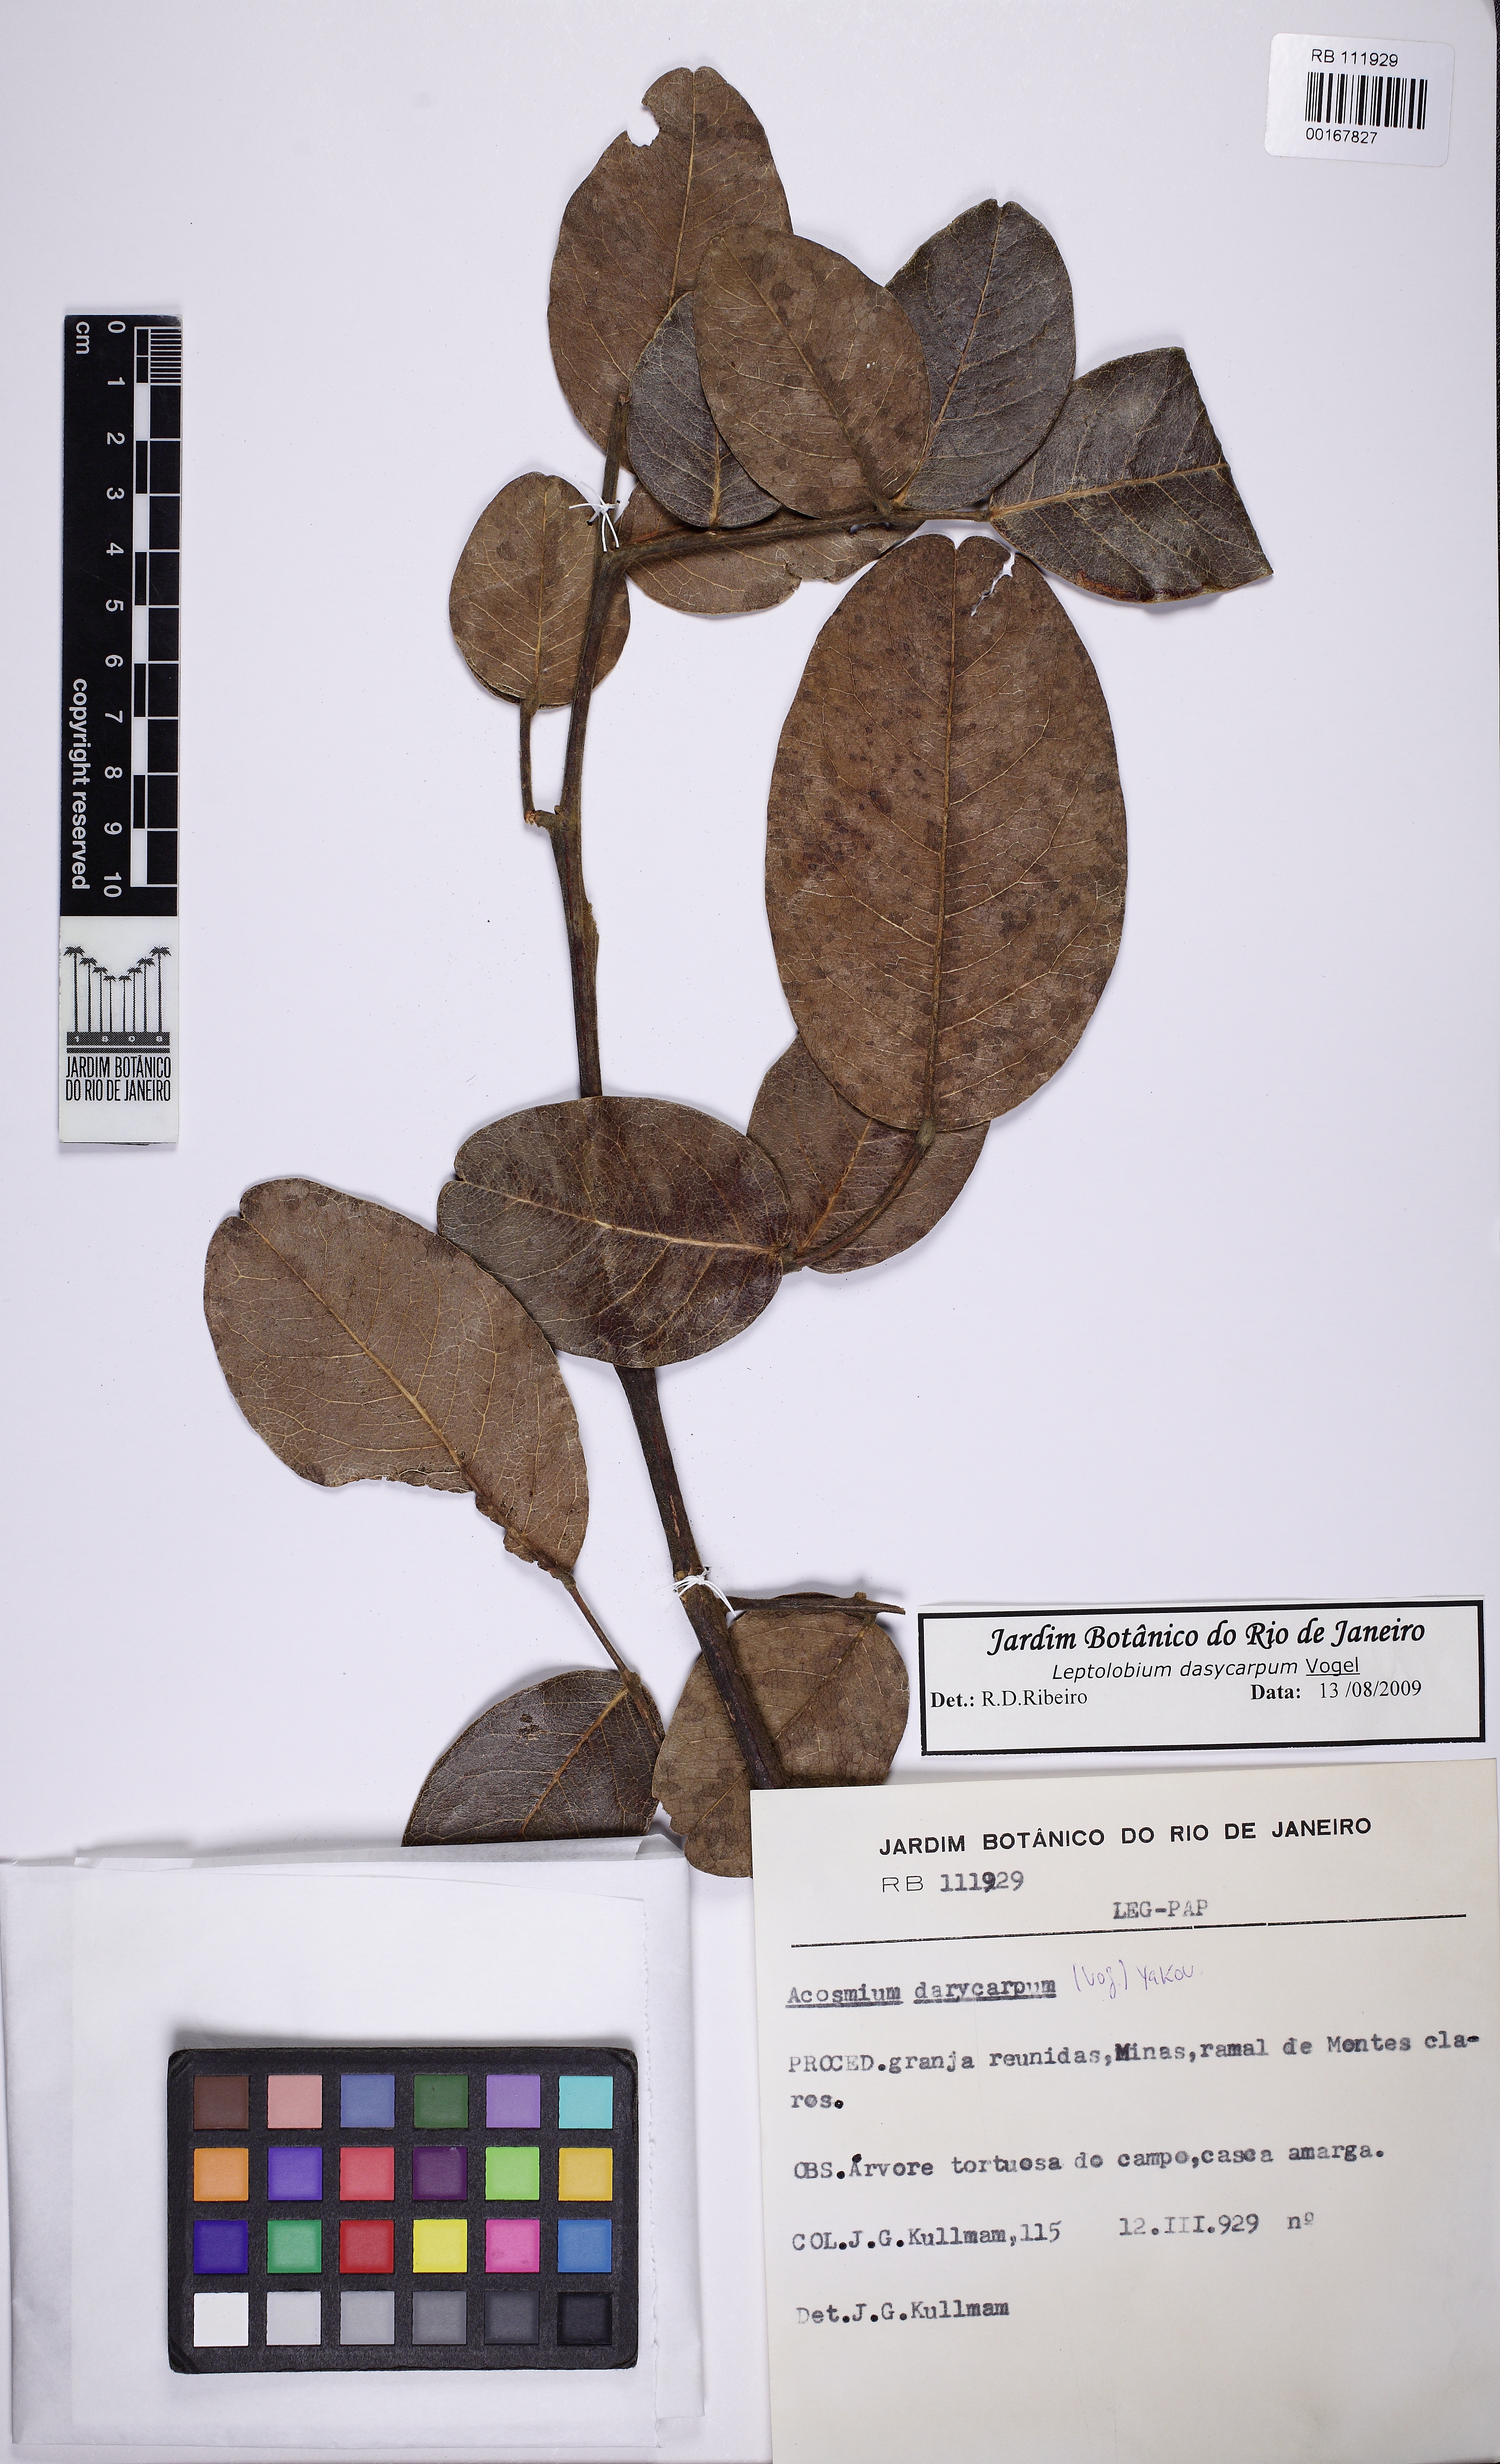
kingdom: Plantae
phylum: Tracheophyta
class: Magnoliopsida
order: Fabales
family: Fabaceae
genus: Leptolobium
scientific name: Leptolobium dasycarpum
